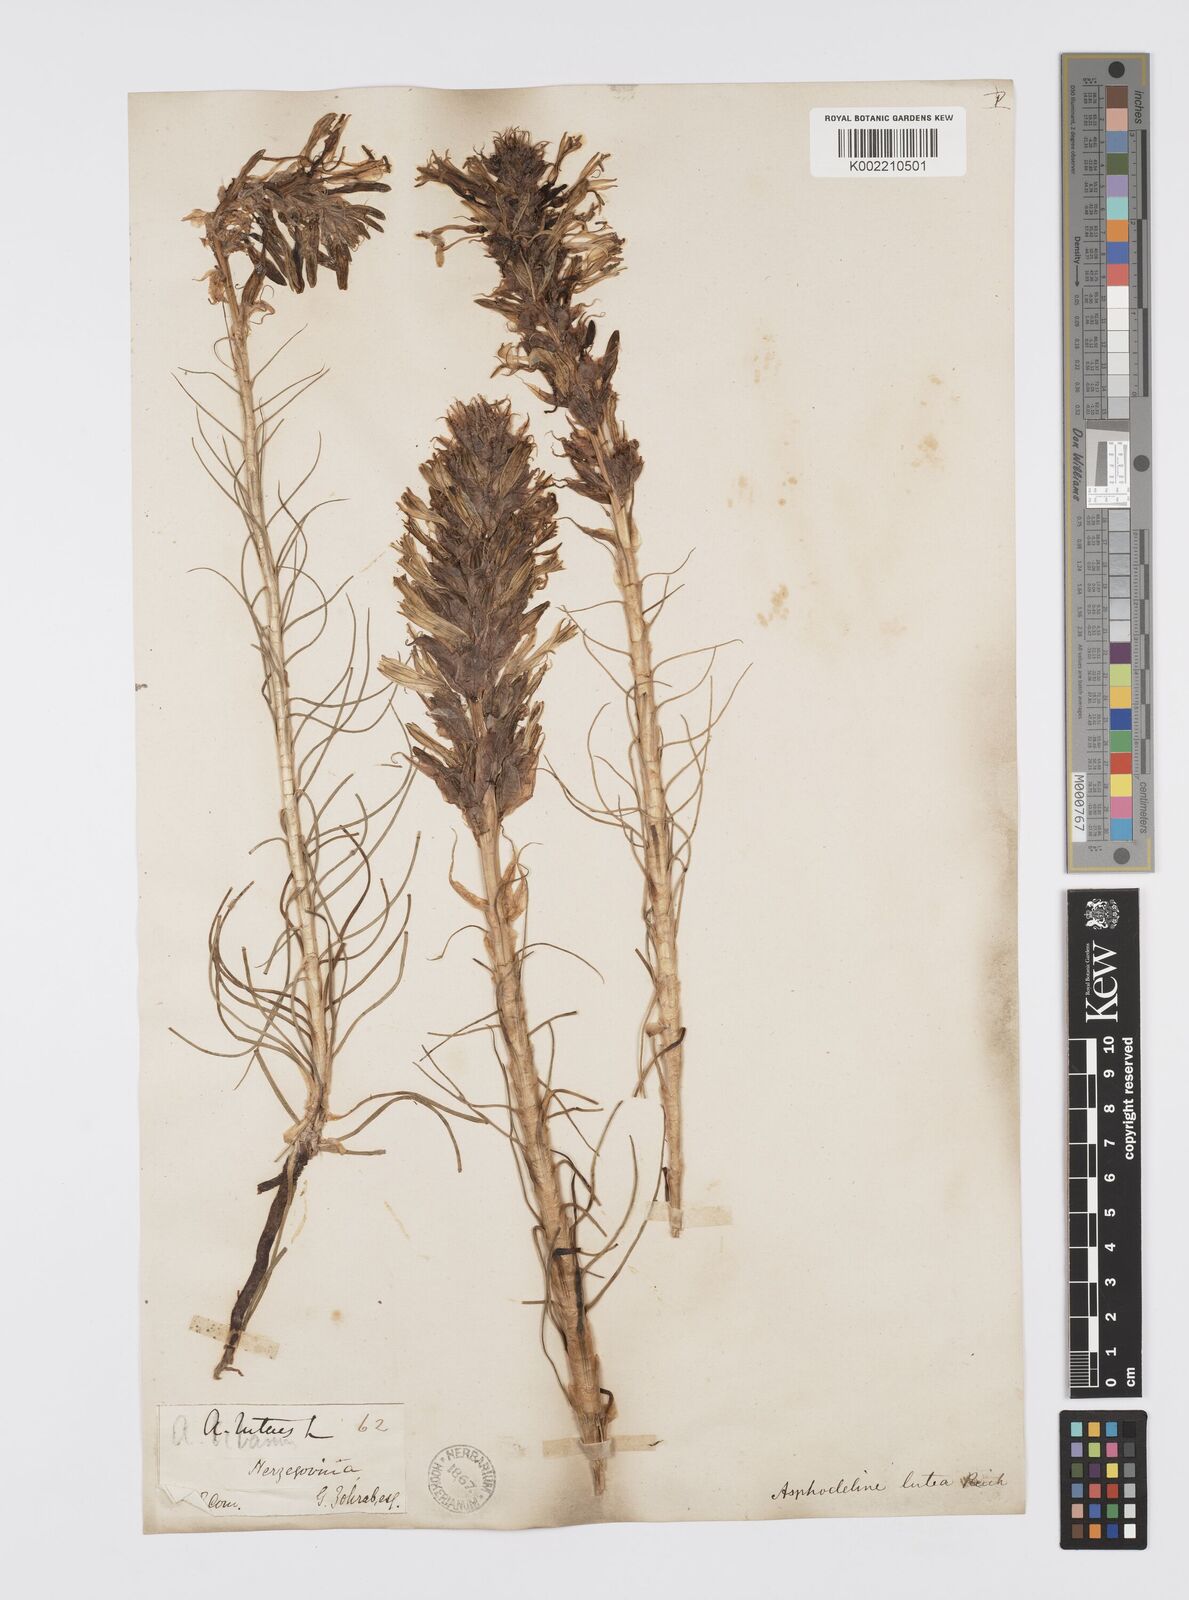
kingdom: Plantae
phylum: Tracheophyta
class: Liliopsida
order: Asparagales
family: Asphodelaceae
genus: Asphodeline
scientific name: Asphodeline lutea
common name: Yellow asphodel
